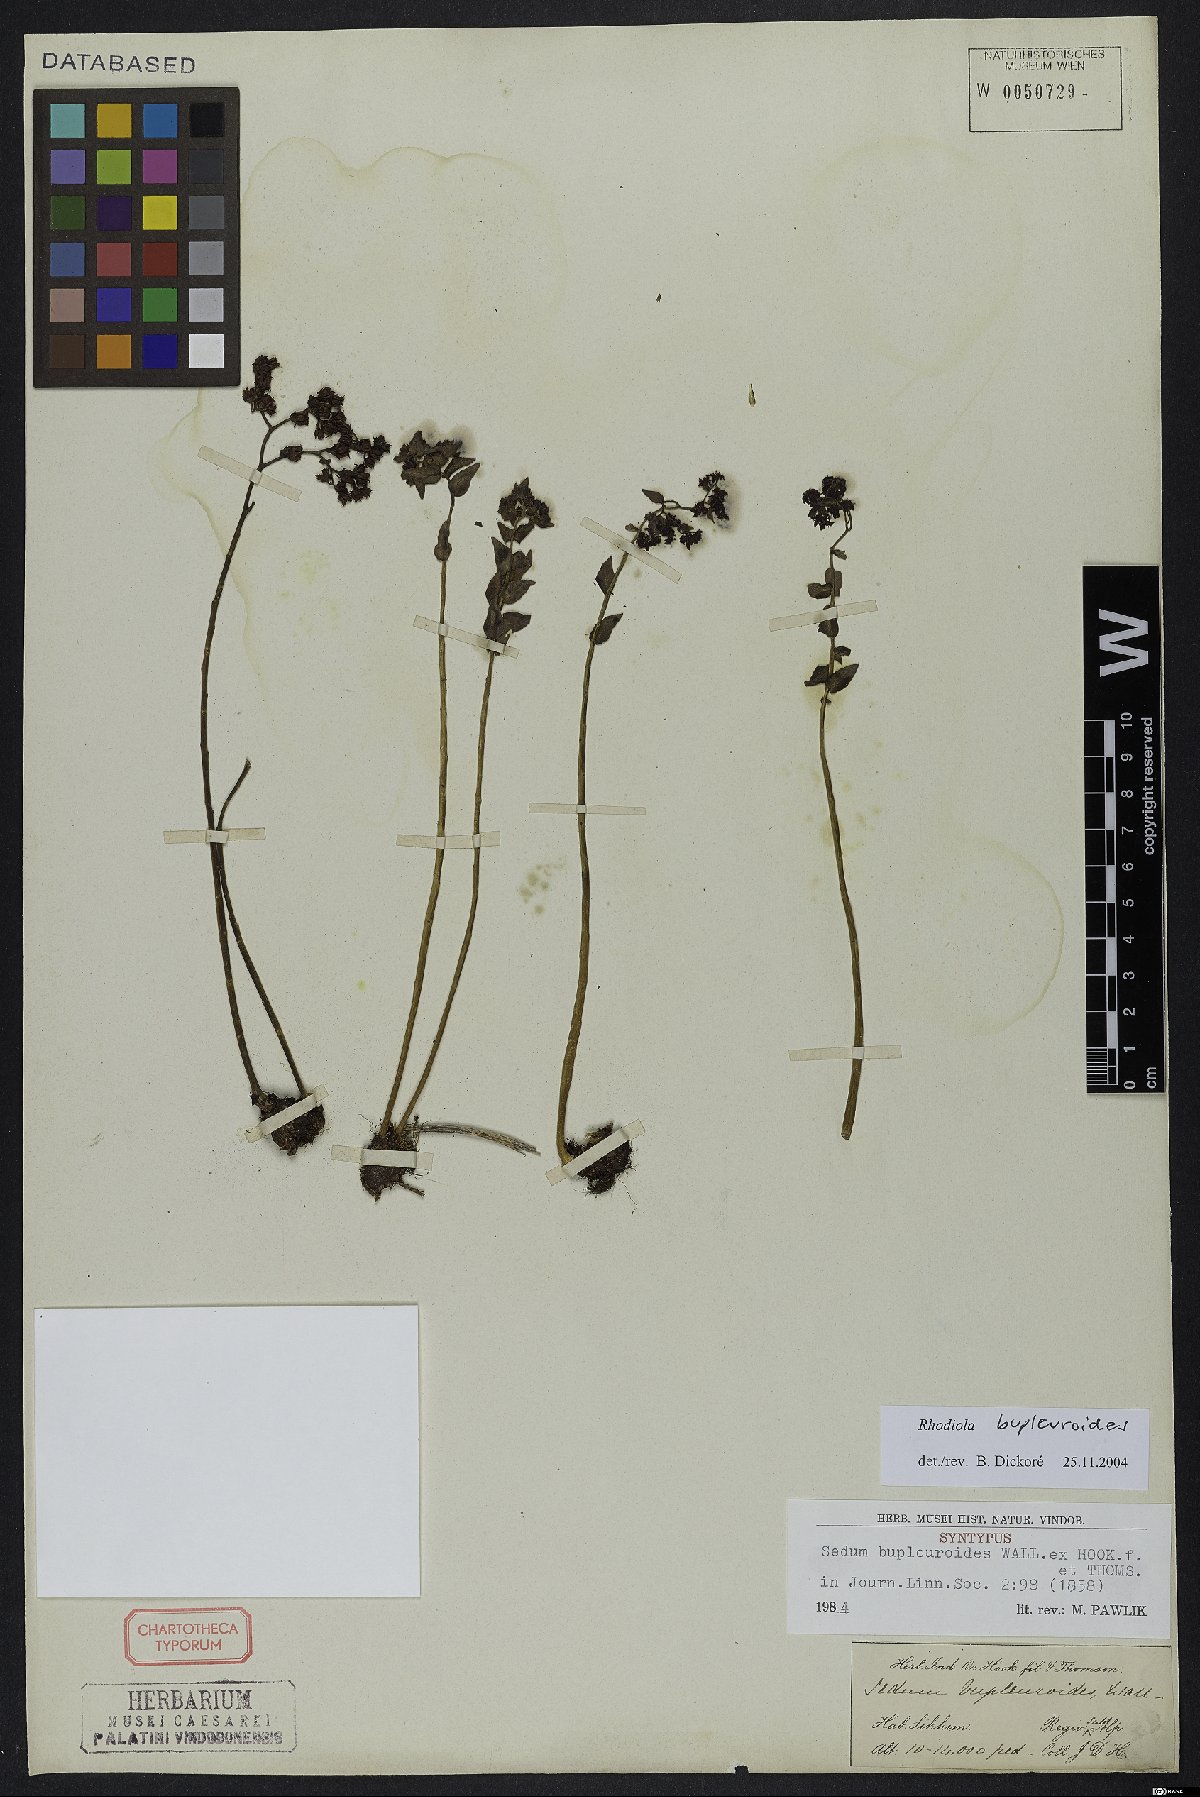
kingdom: Plantae
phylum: Tracheophyta
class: Magnoliopsida
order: Saxifragales
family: Crassulaceae
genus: Rhodiola
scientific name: Rhodiola bupleuroides
